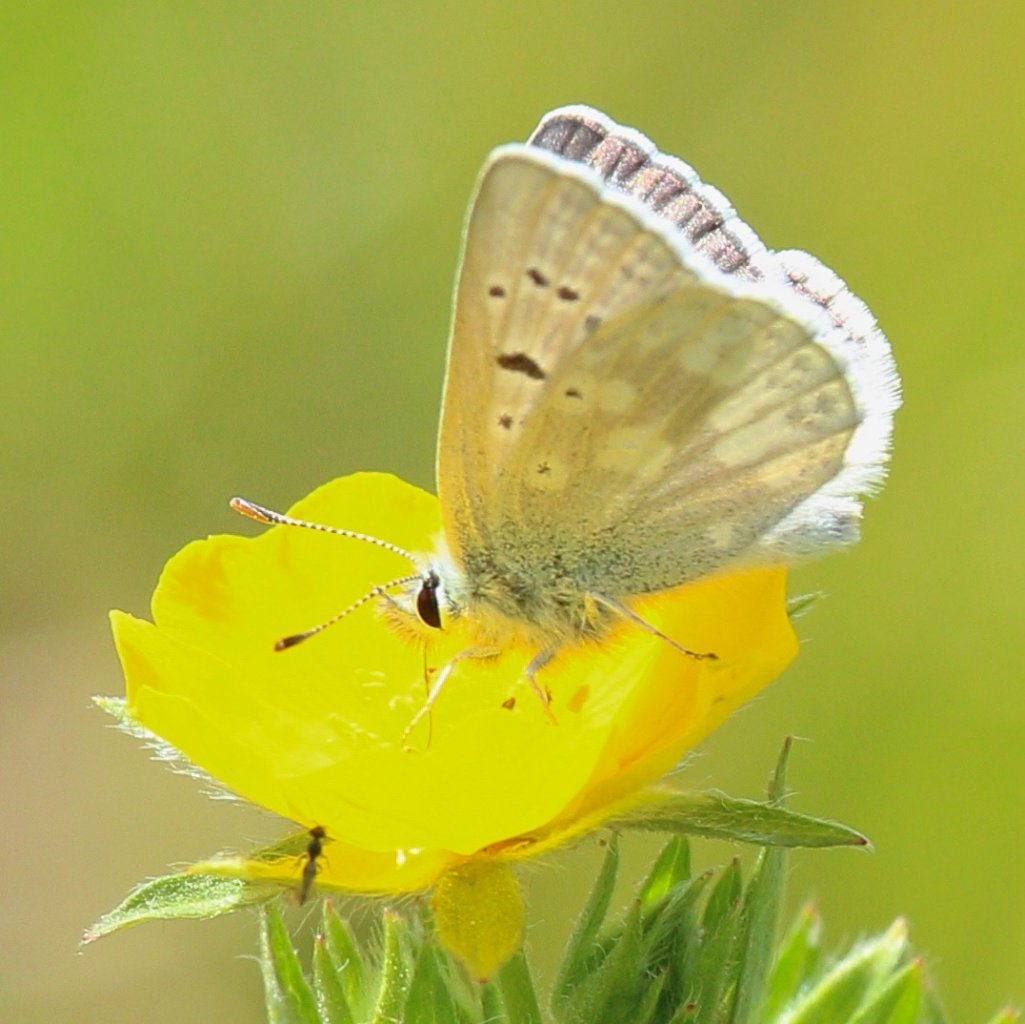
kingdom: Animalia
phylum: Arthropoda
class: Insecta
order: Lepidoptera
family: Lycaenidae
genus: Agriades
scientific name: Agriades glandon
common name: Arctic Blue
